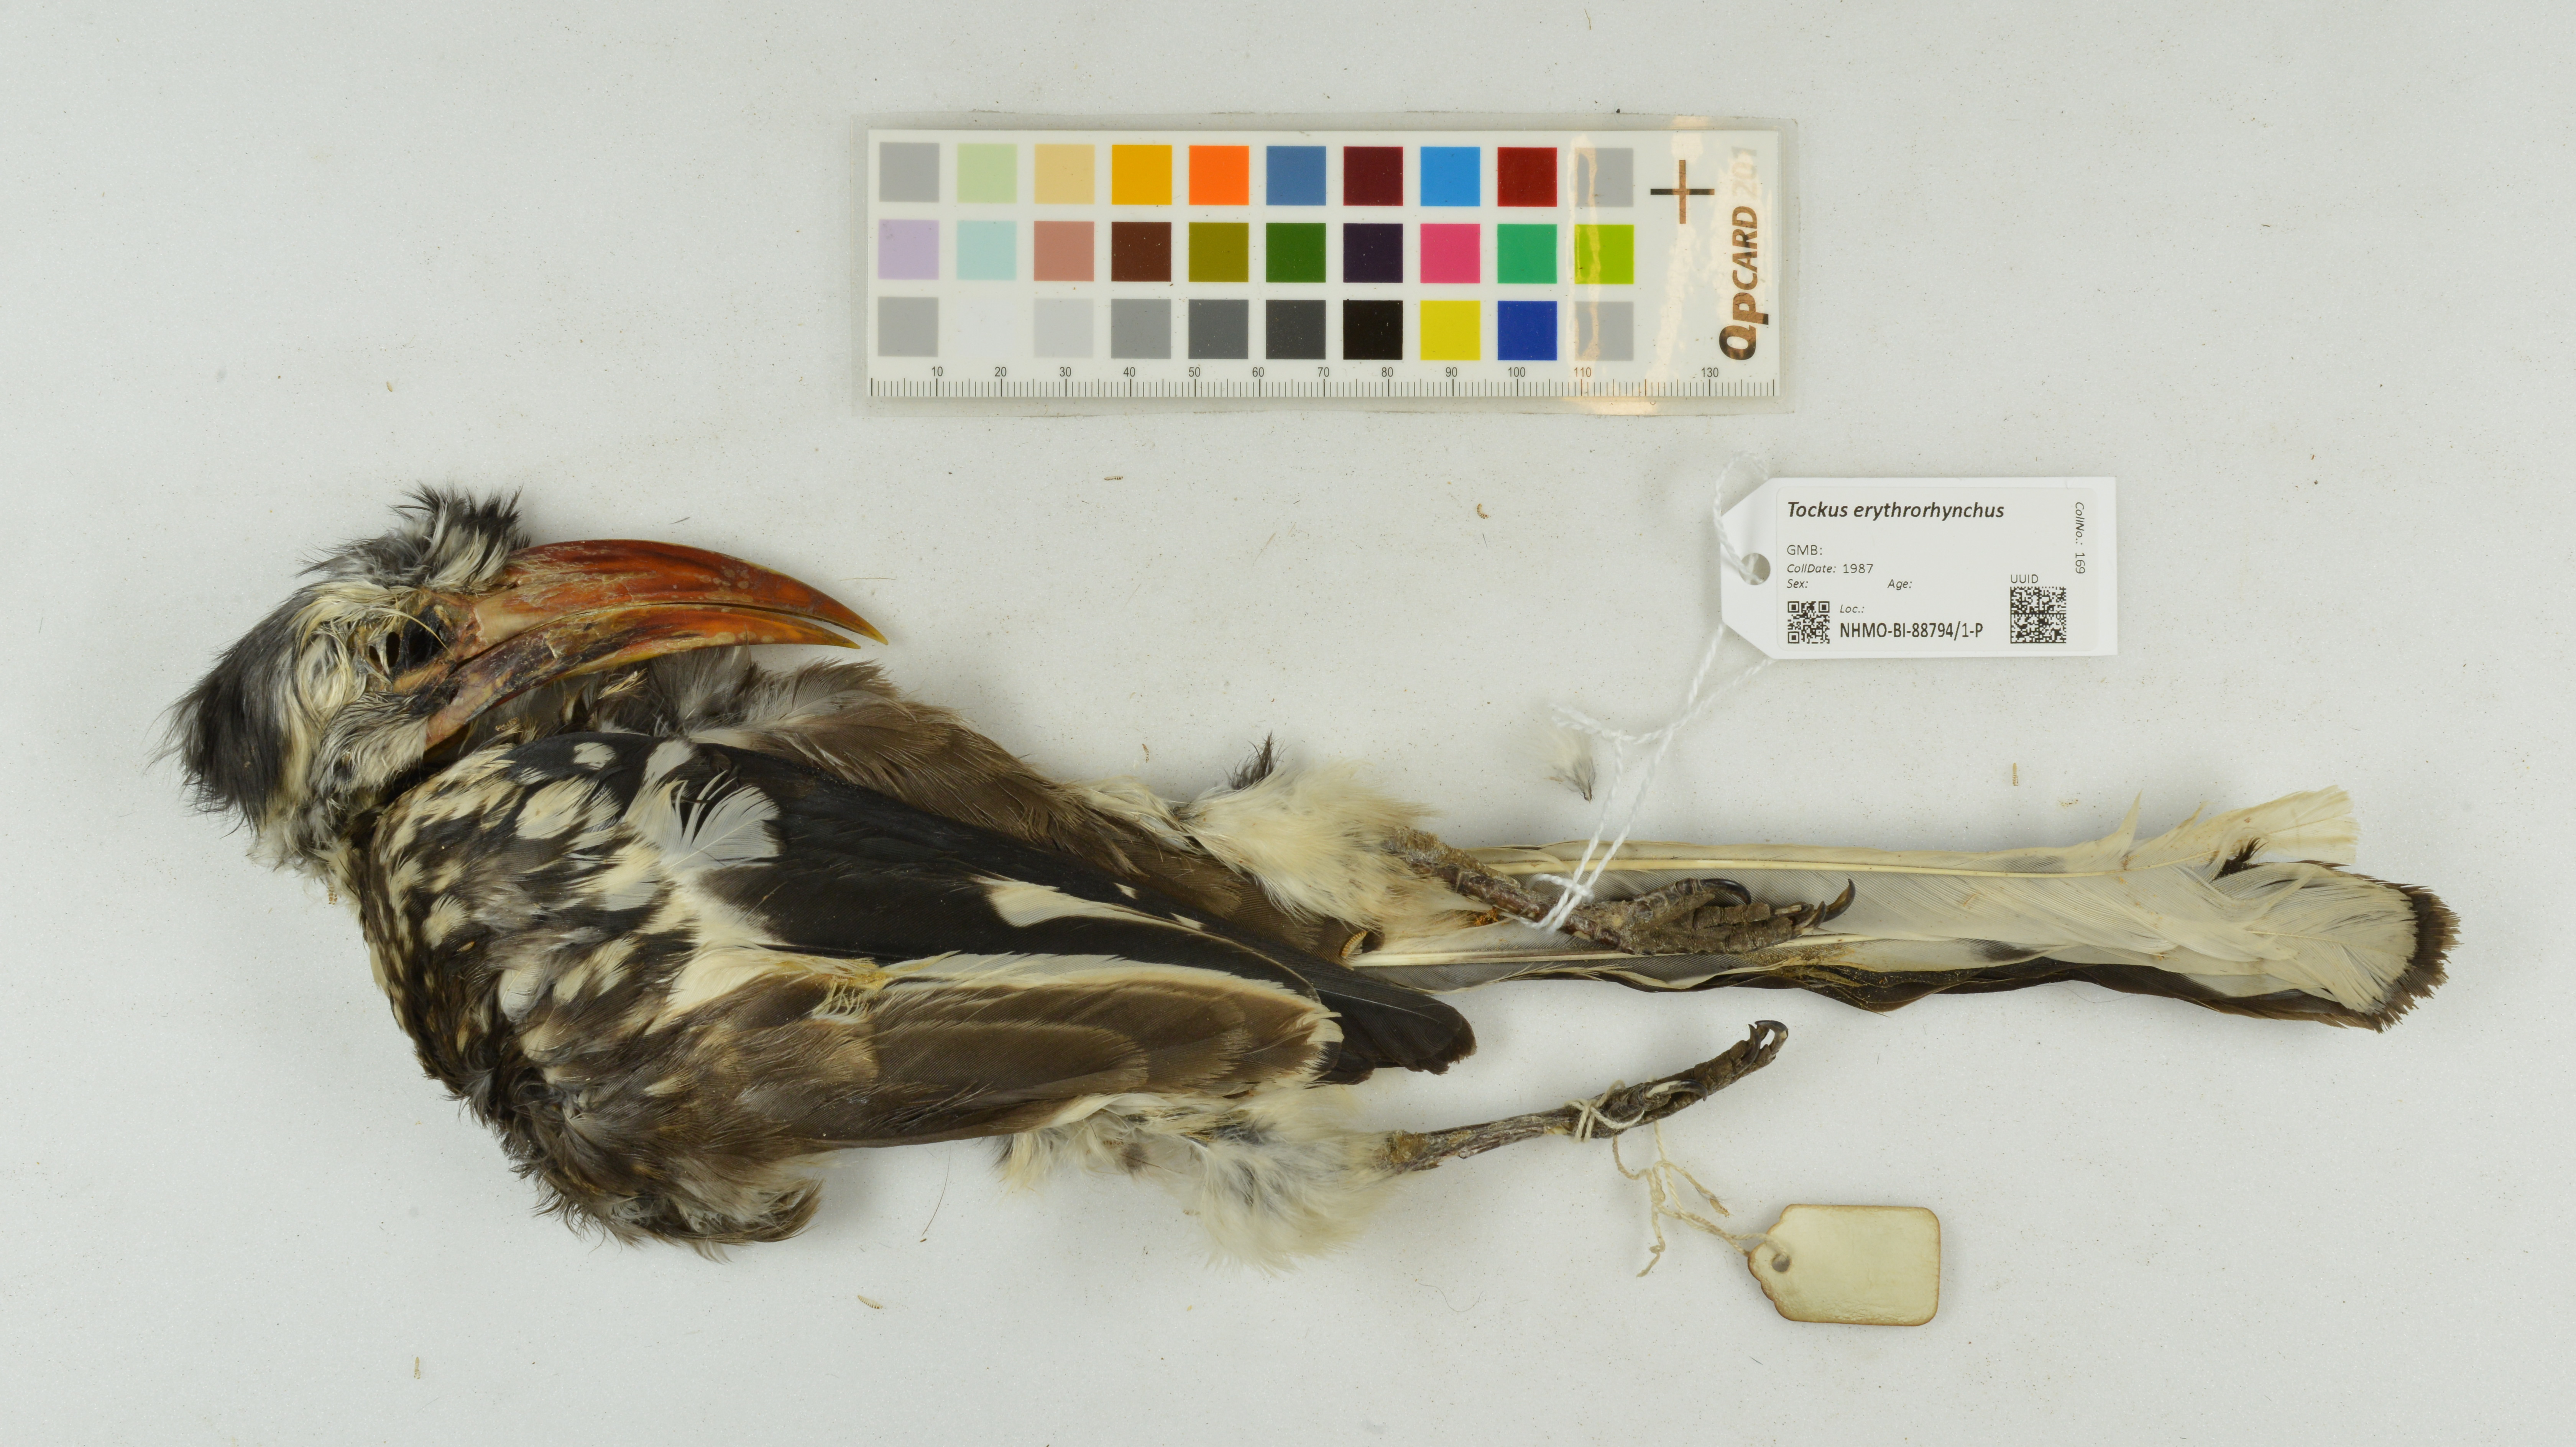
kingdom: Animalia
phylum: Chordata
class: Aves
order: Bucerotiformes
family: Bucerotidae
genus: Tockus
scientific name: Tockus erythrorhynchus
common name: Northern red-billed hornbill
